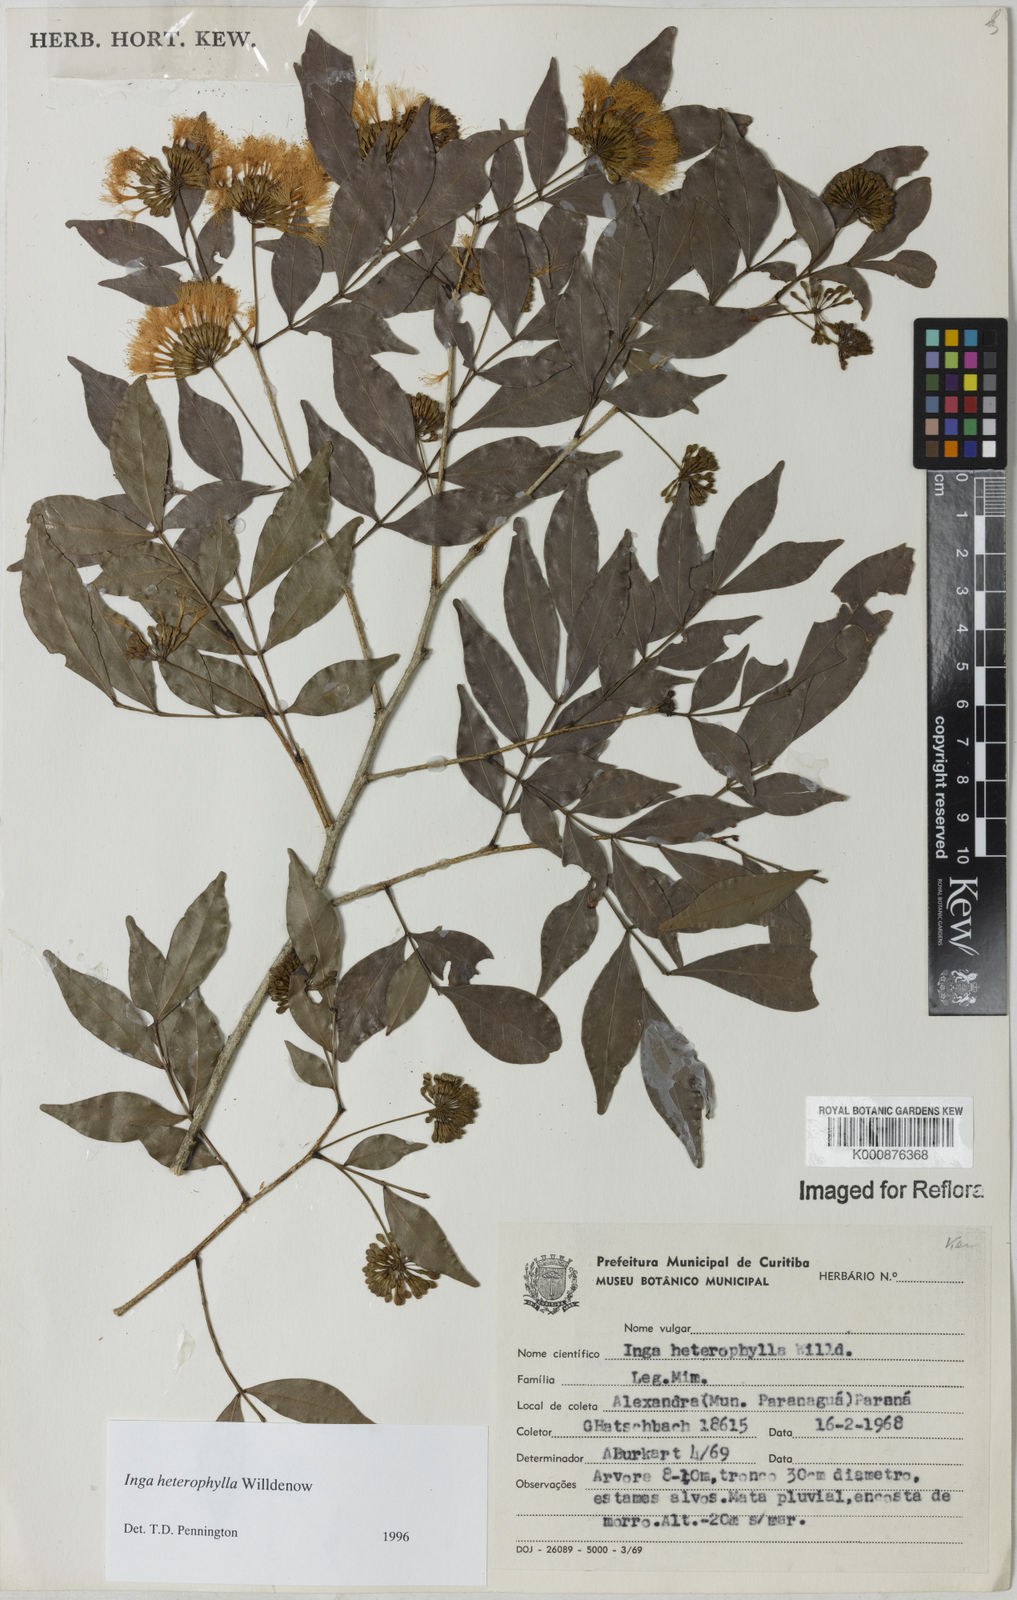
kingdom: Plantae
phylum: Tracheophyta
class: Magnoliopsida
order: Fabales
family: Fabaceae
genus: Inga
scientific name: Inga heterophylla
